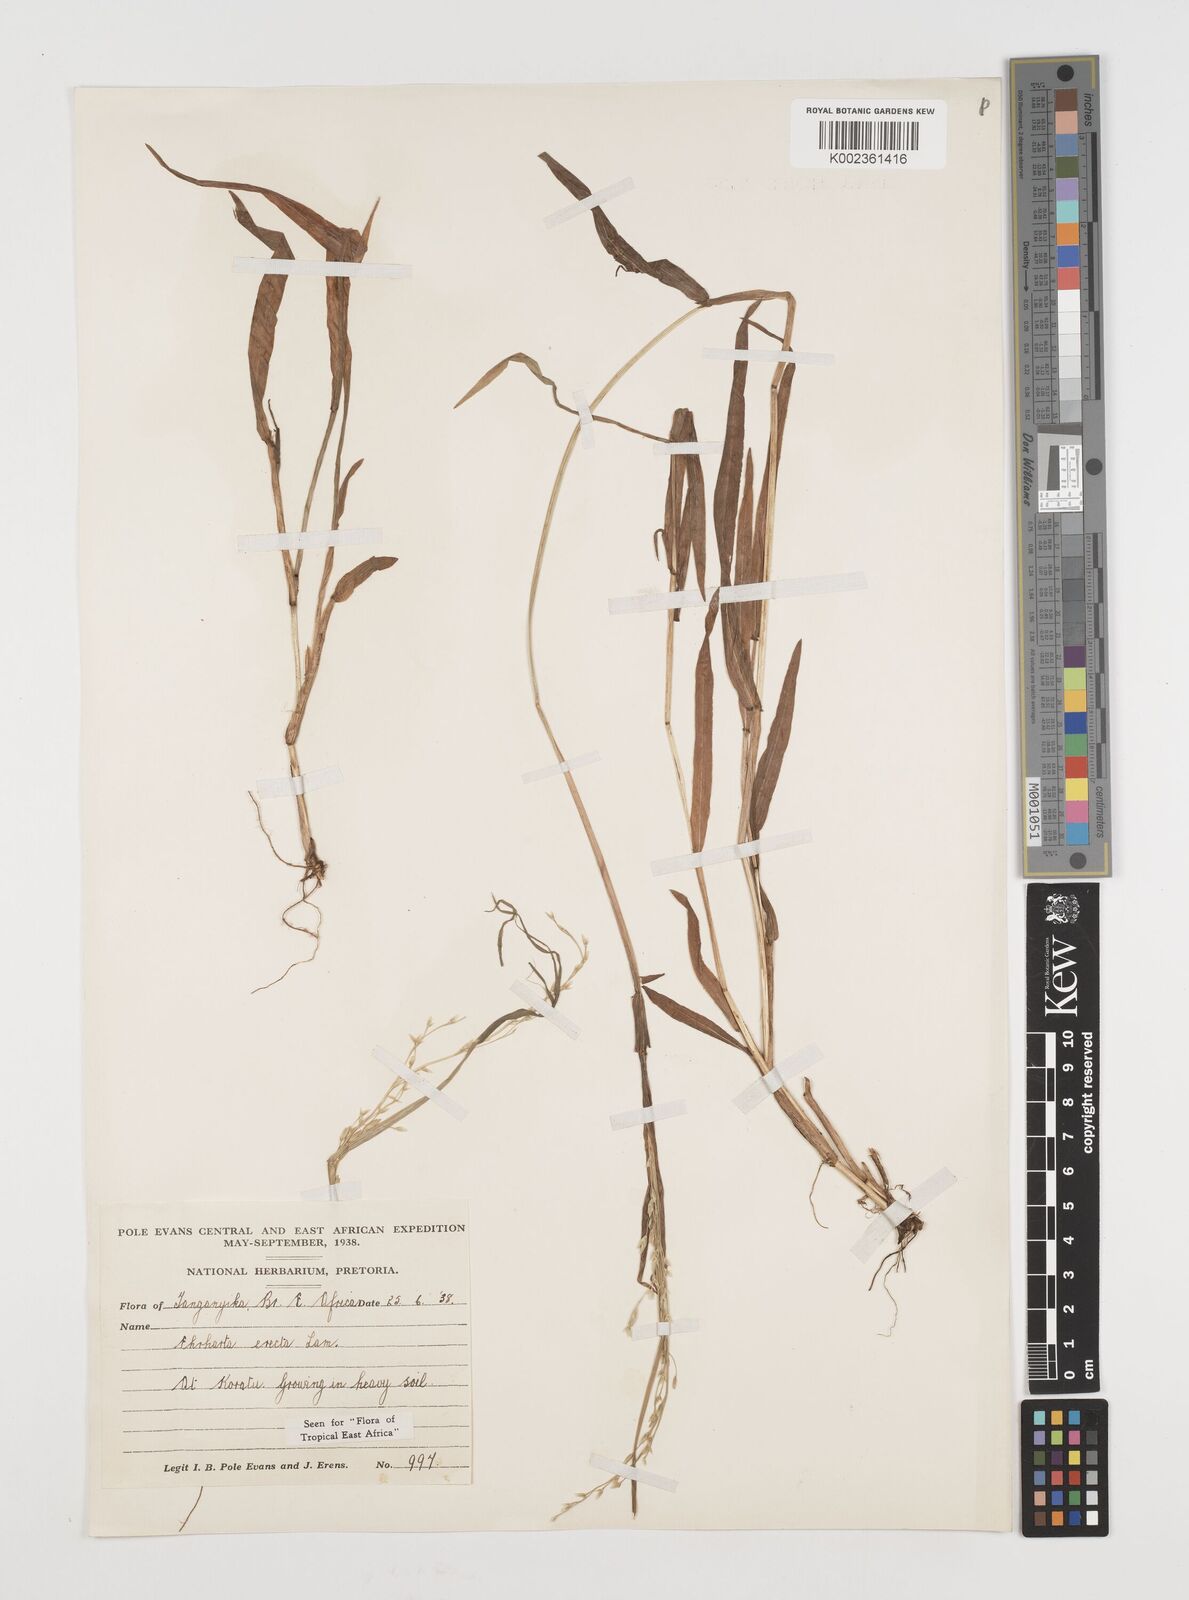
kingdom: Plantae
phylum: Tracheophyta
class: Liliopsida
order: Poales
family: Poaceae
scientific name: Poaceae
